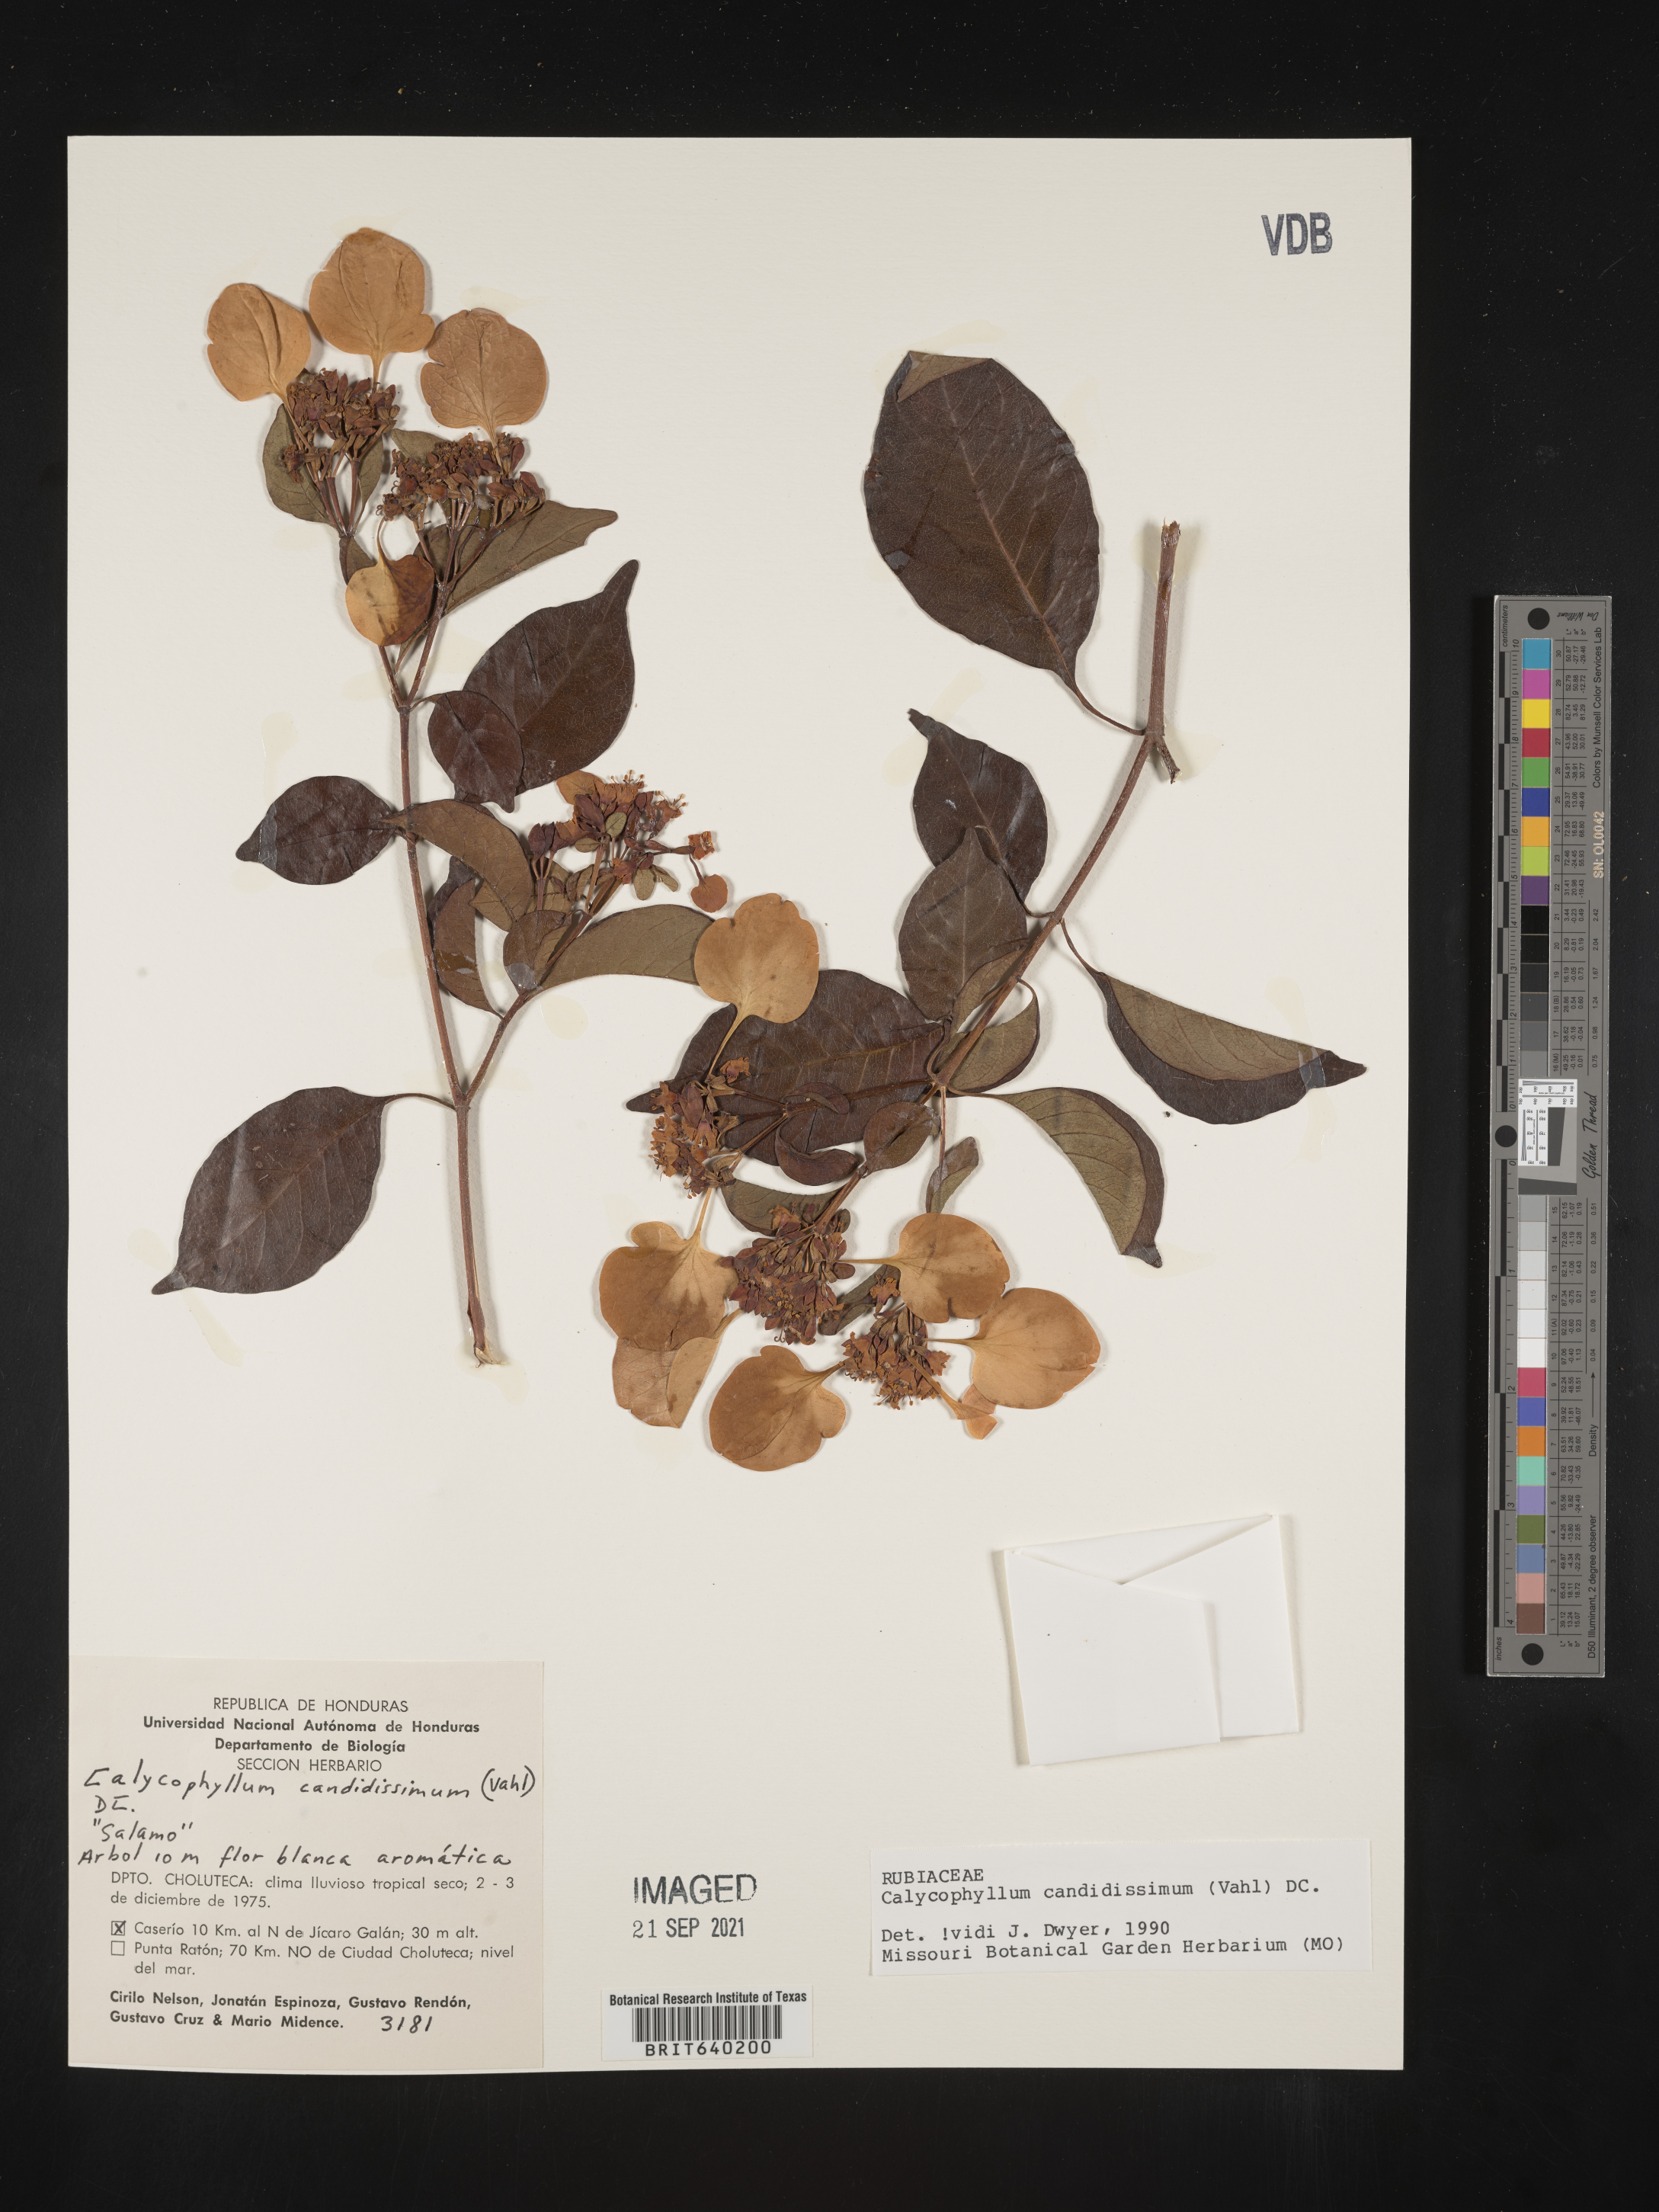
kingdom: Plantae
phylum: Tracheophyta
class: Magnoliopsida
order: Gentianales
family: Rubiaceae
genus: Calycophyllum
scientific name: Calycophyllum
